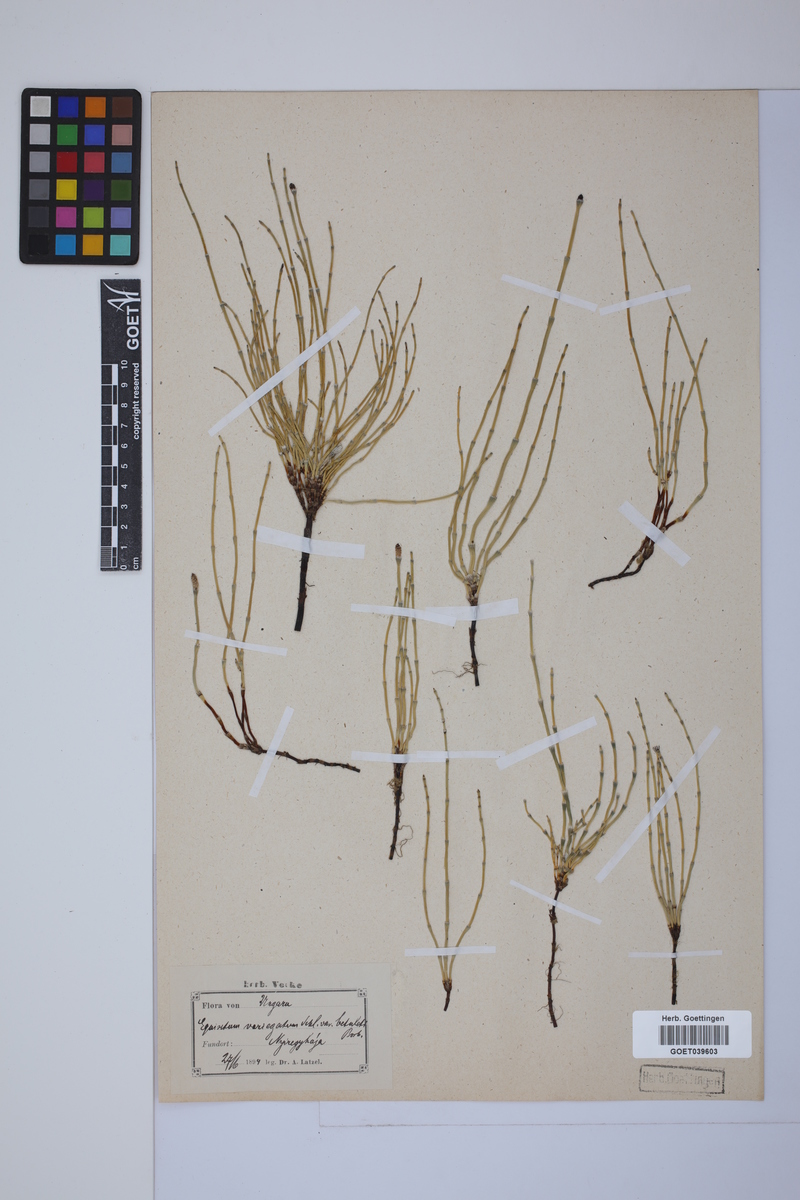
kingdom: Plantae
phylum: Tracheophyta
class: Polypodiopsida
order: Equisetales
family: Equisetaceae
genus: Equisetum
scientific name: Equisetum variegatum
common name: Variegated horsetail
